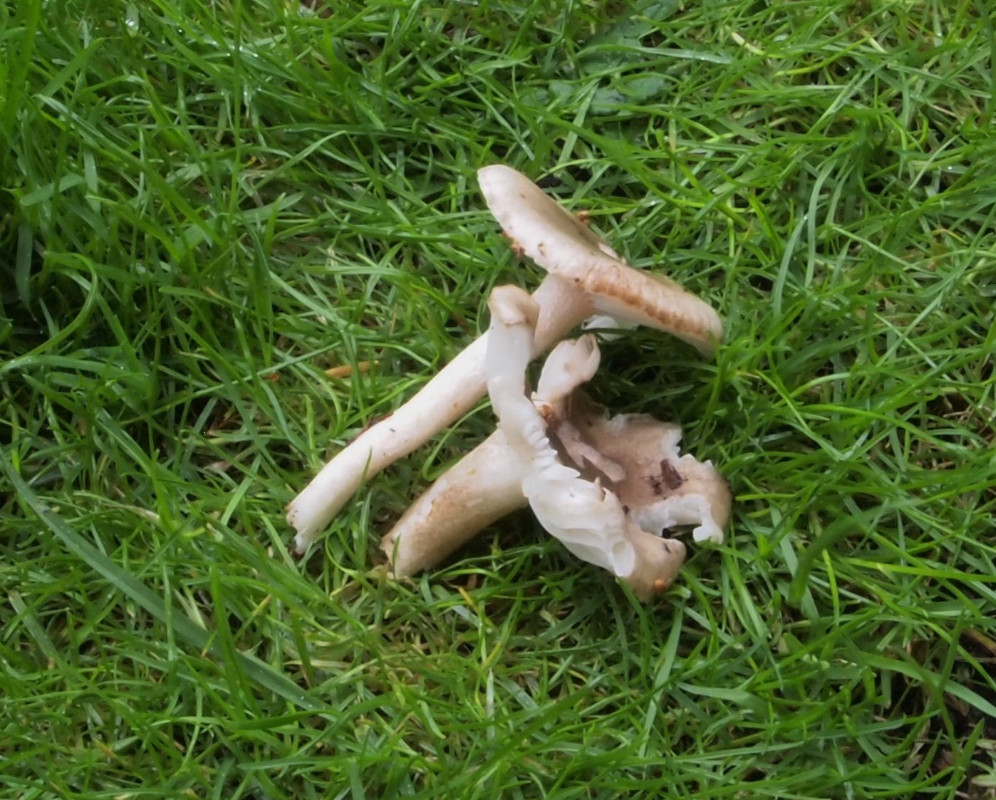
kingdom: Fungi
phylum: Basidiomycota
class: Agaricomycetes
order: Agaricales
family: Hygrophoraceae
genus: Hygrophorus
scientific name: Hygrophorus pustulatus
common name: mørkprikket sneglehat
